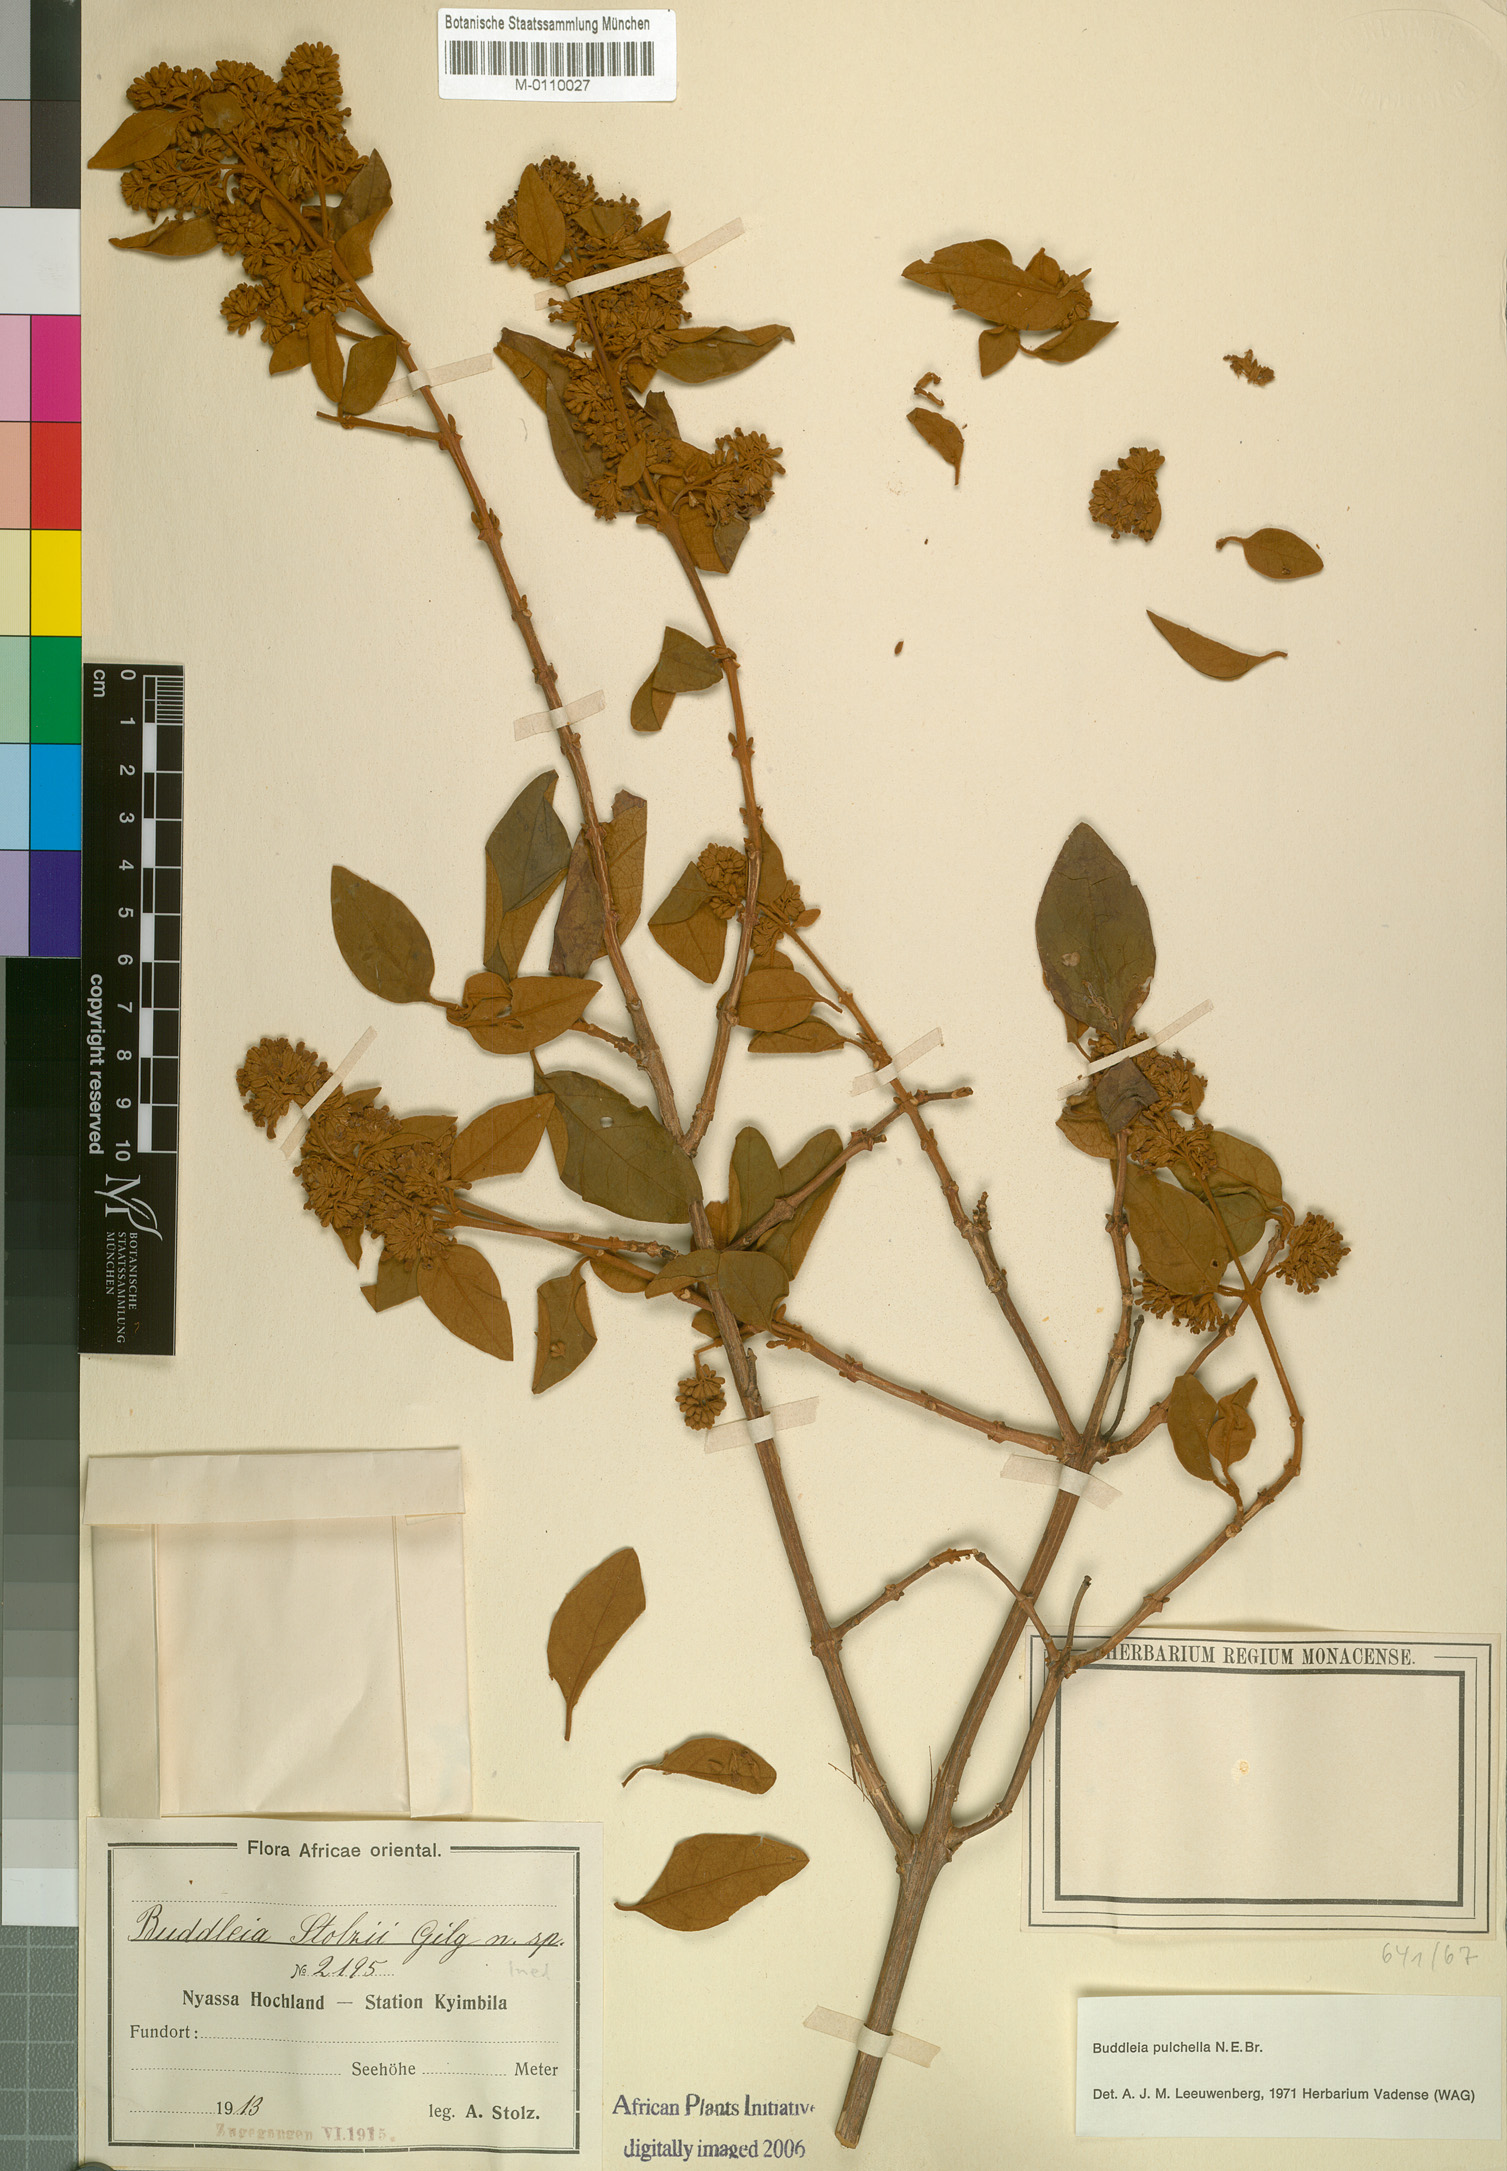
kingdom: Plantae
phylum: Tracheophyta
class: Magnoliopsida
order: Lamiales
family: Scrophulariaceae
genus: Buddleja
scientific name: Buddleja pulchella
